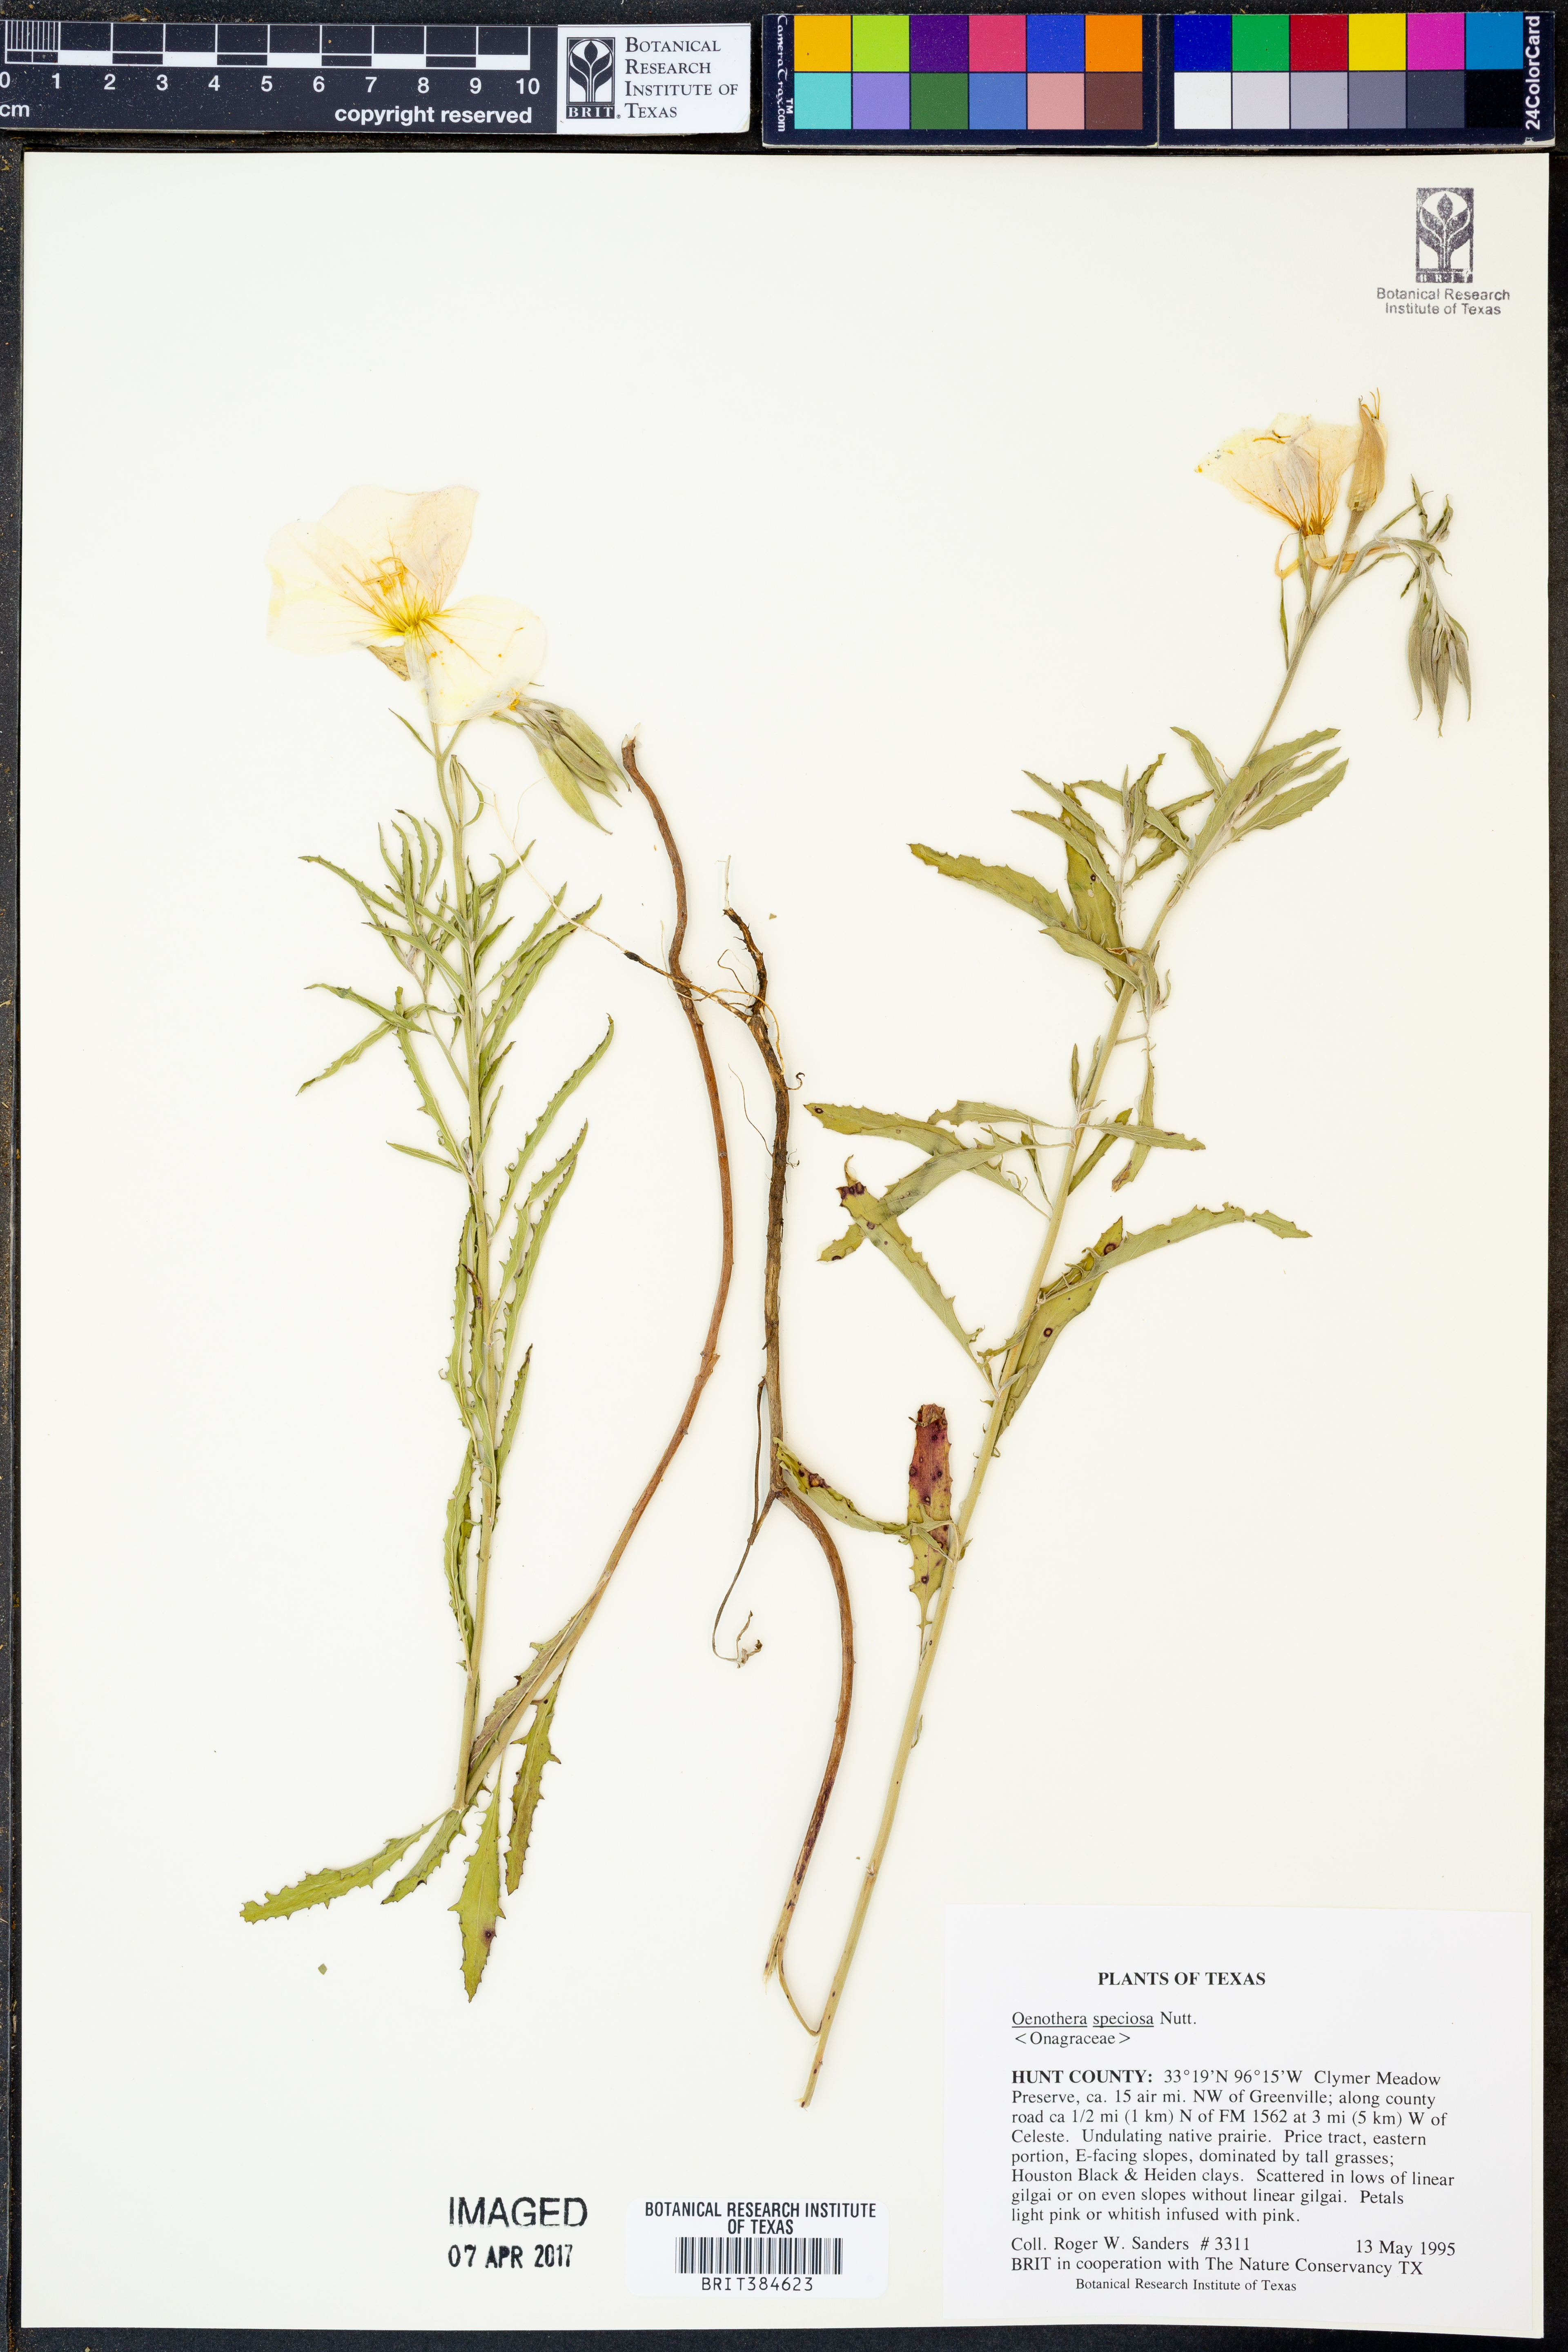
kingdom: Plantae
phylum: Tracheophyta
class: Magnoliopsida
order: Myrtales
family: Onagraceae
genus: Oenothera
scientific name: Oenothera speciosa
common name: White evening-primrose
